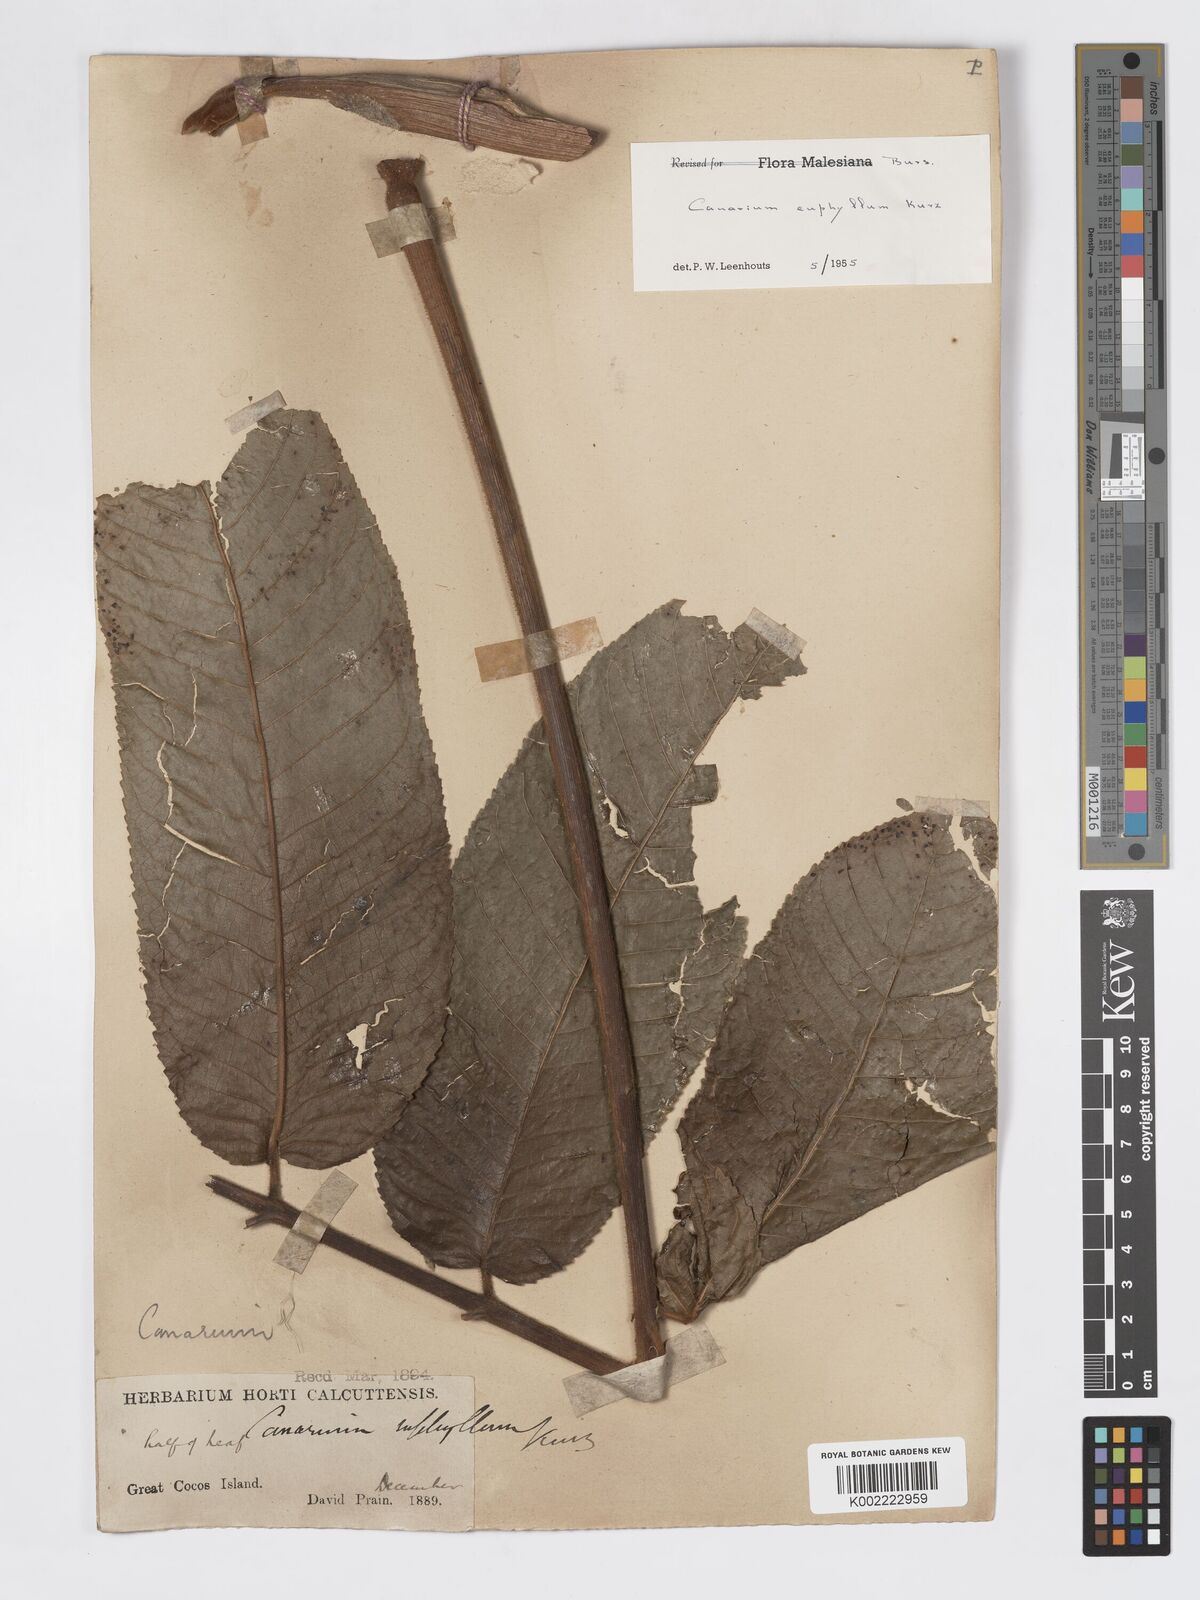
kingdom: Plantae
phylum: Tracheophyta
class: Magnoliopsida
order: Sapindales
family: Burseraceae
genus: Canarium
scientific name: Canarium euphyllum
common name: White dhup
